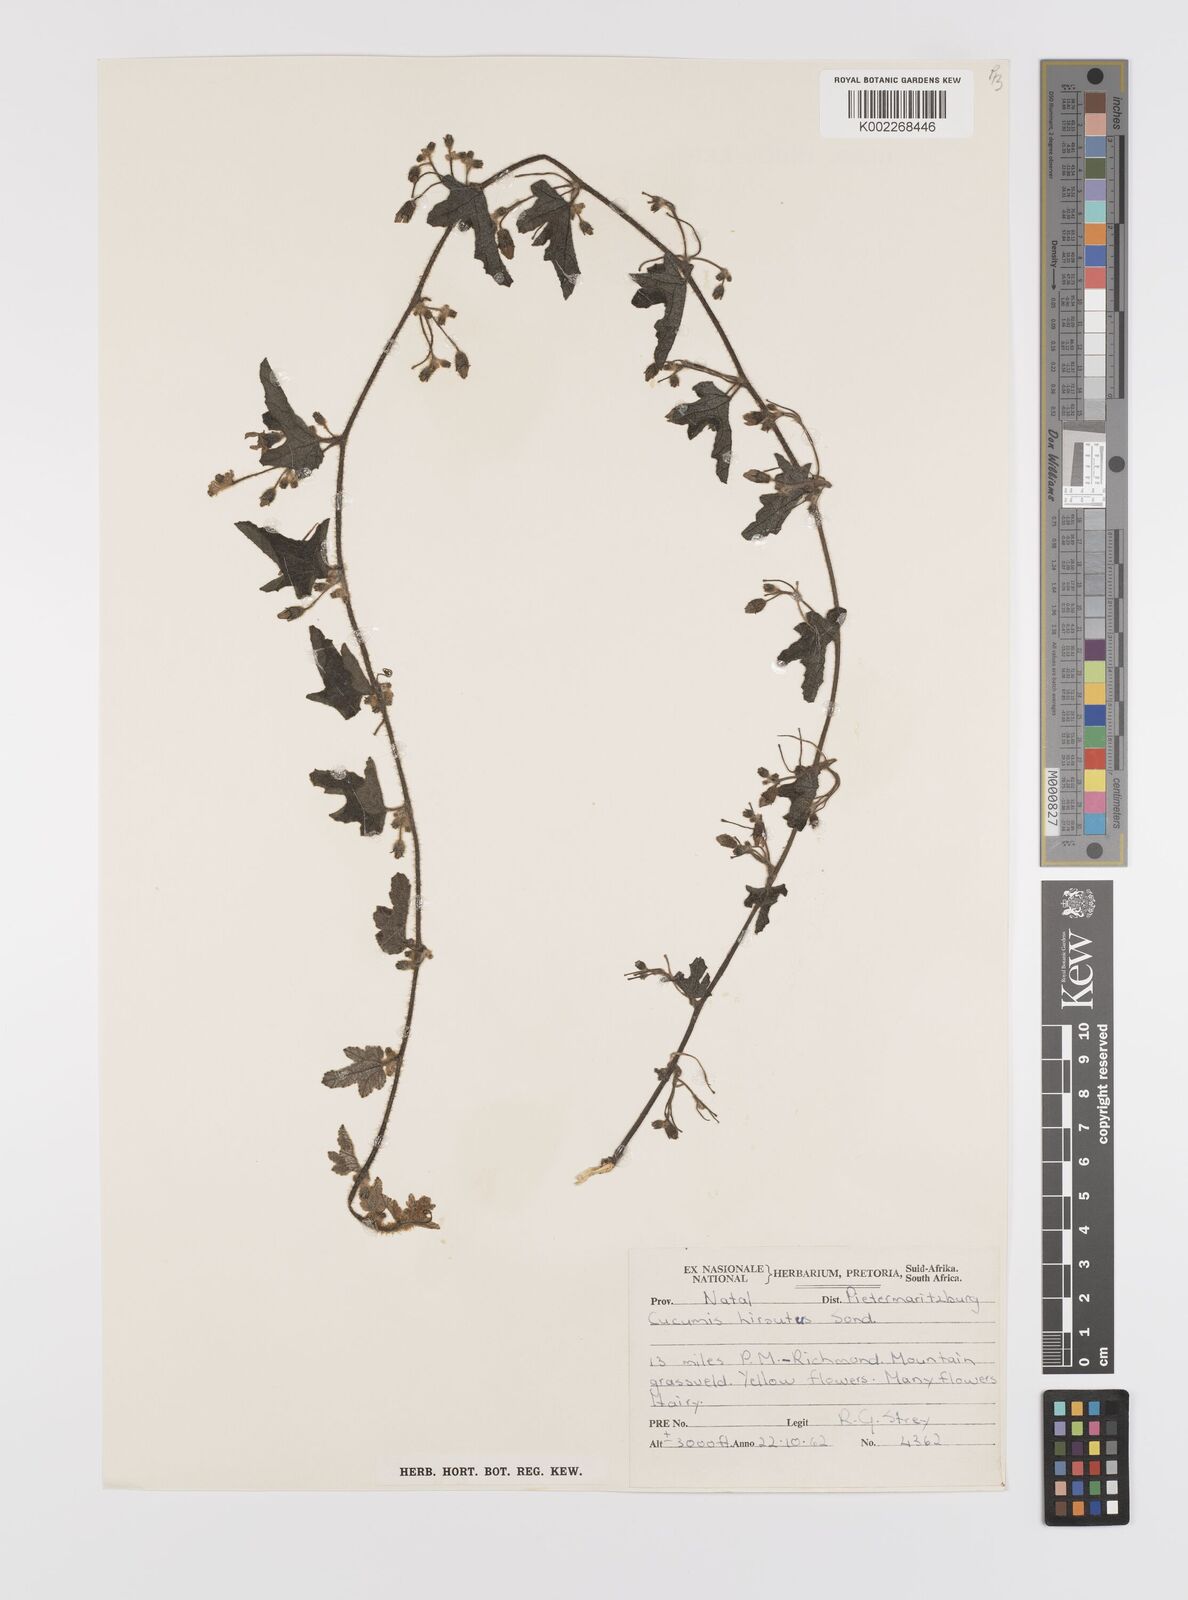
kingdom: Plantae
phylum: Tracheophyta
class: Magnoliopsida
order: Cucurbitales
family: Cucurbitaceae
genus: Cucumis
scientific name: Cucumis hirsutus
